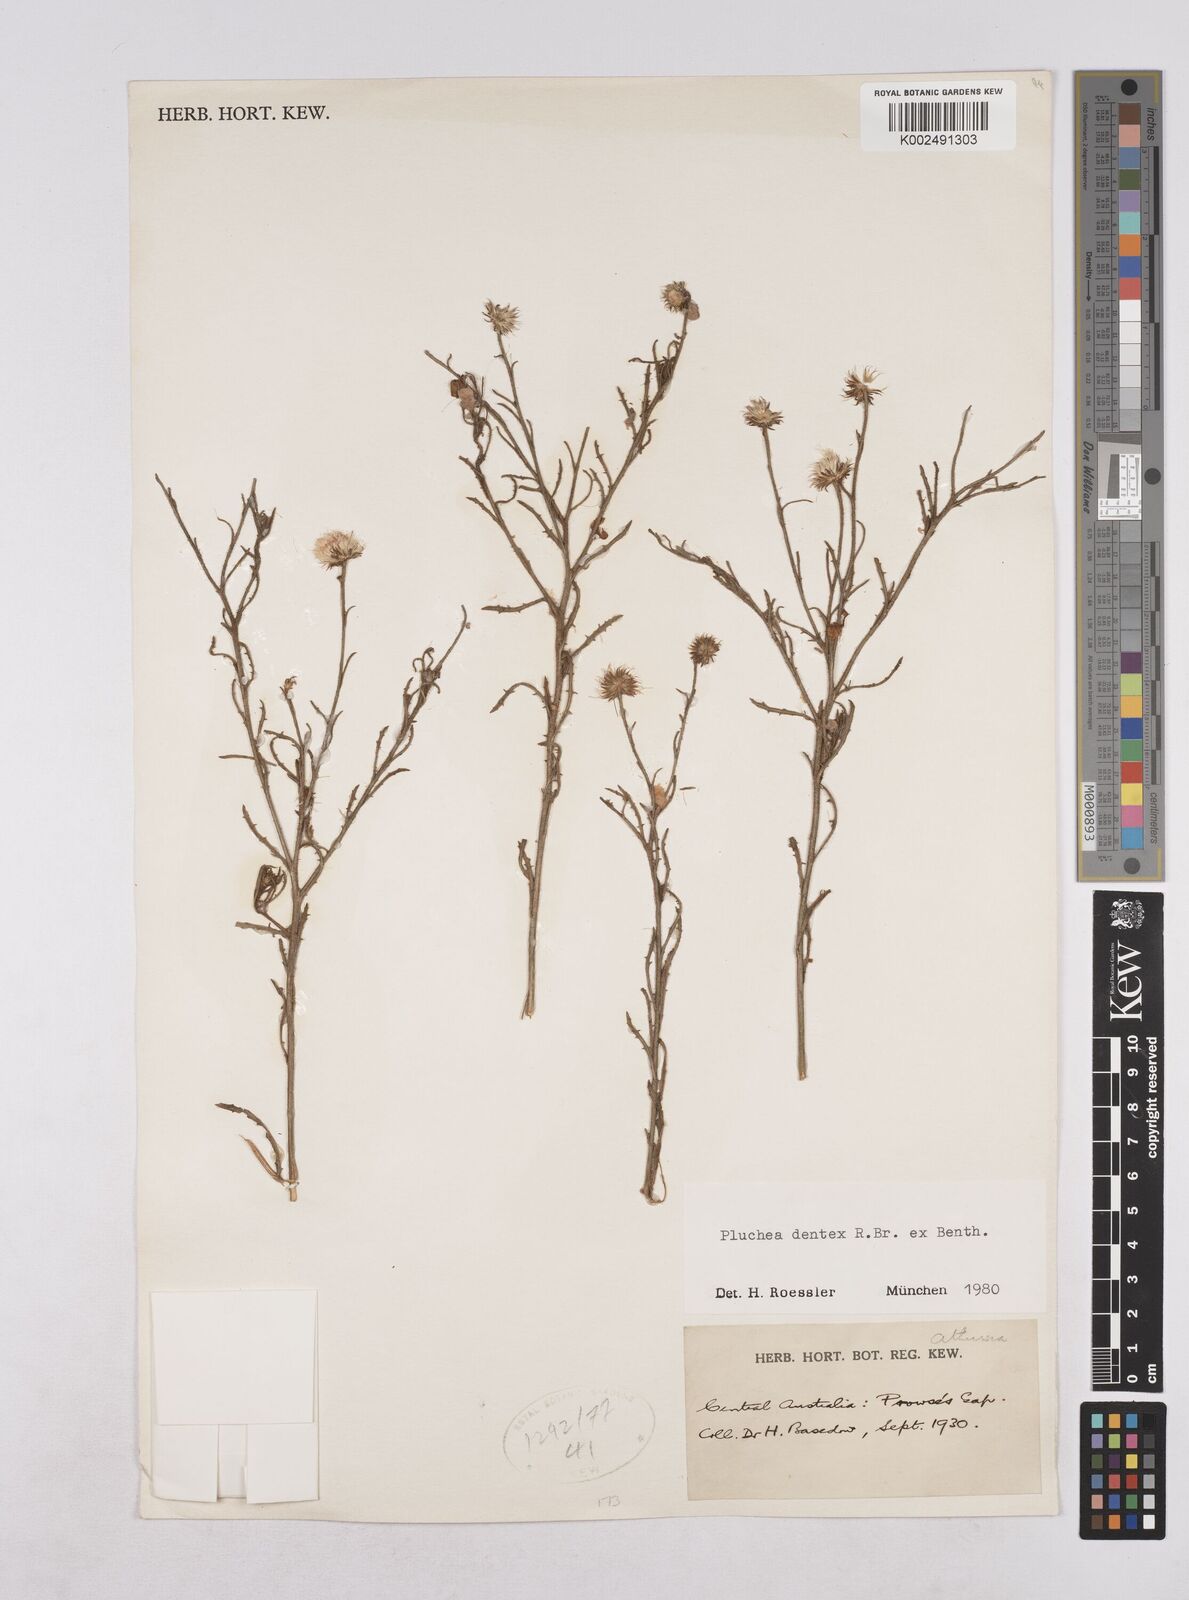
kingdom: Plantae
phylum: Tracheophyta
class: Magnoliopsida
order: Asterales
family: Asteraceae
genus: Pluchea
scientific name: Pluchea dentex
